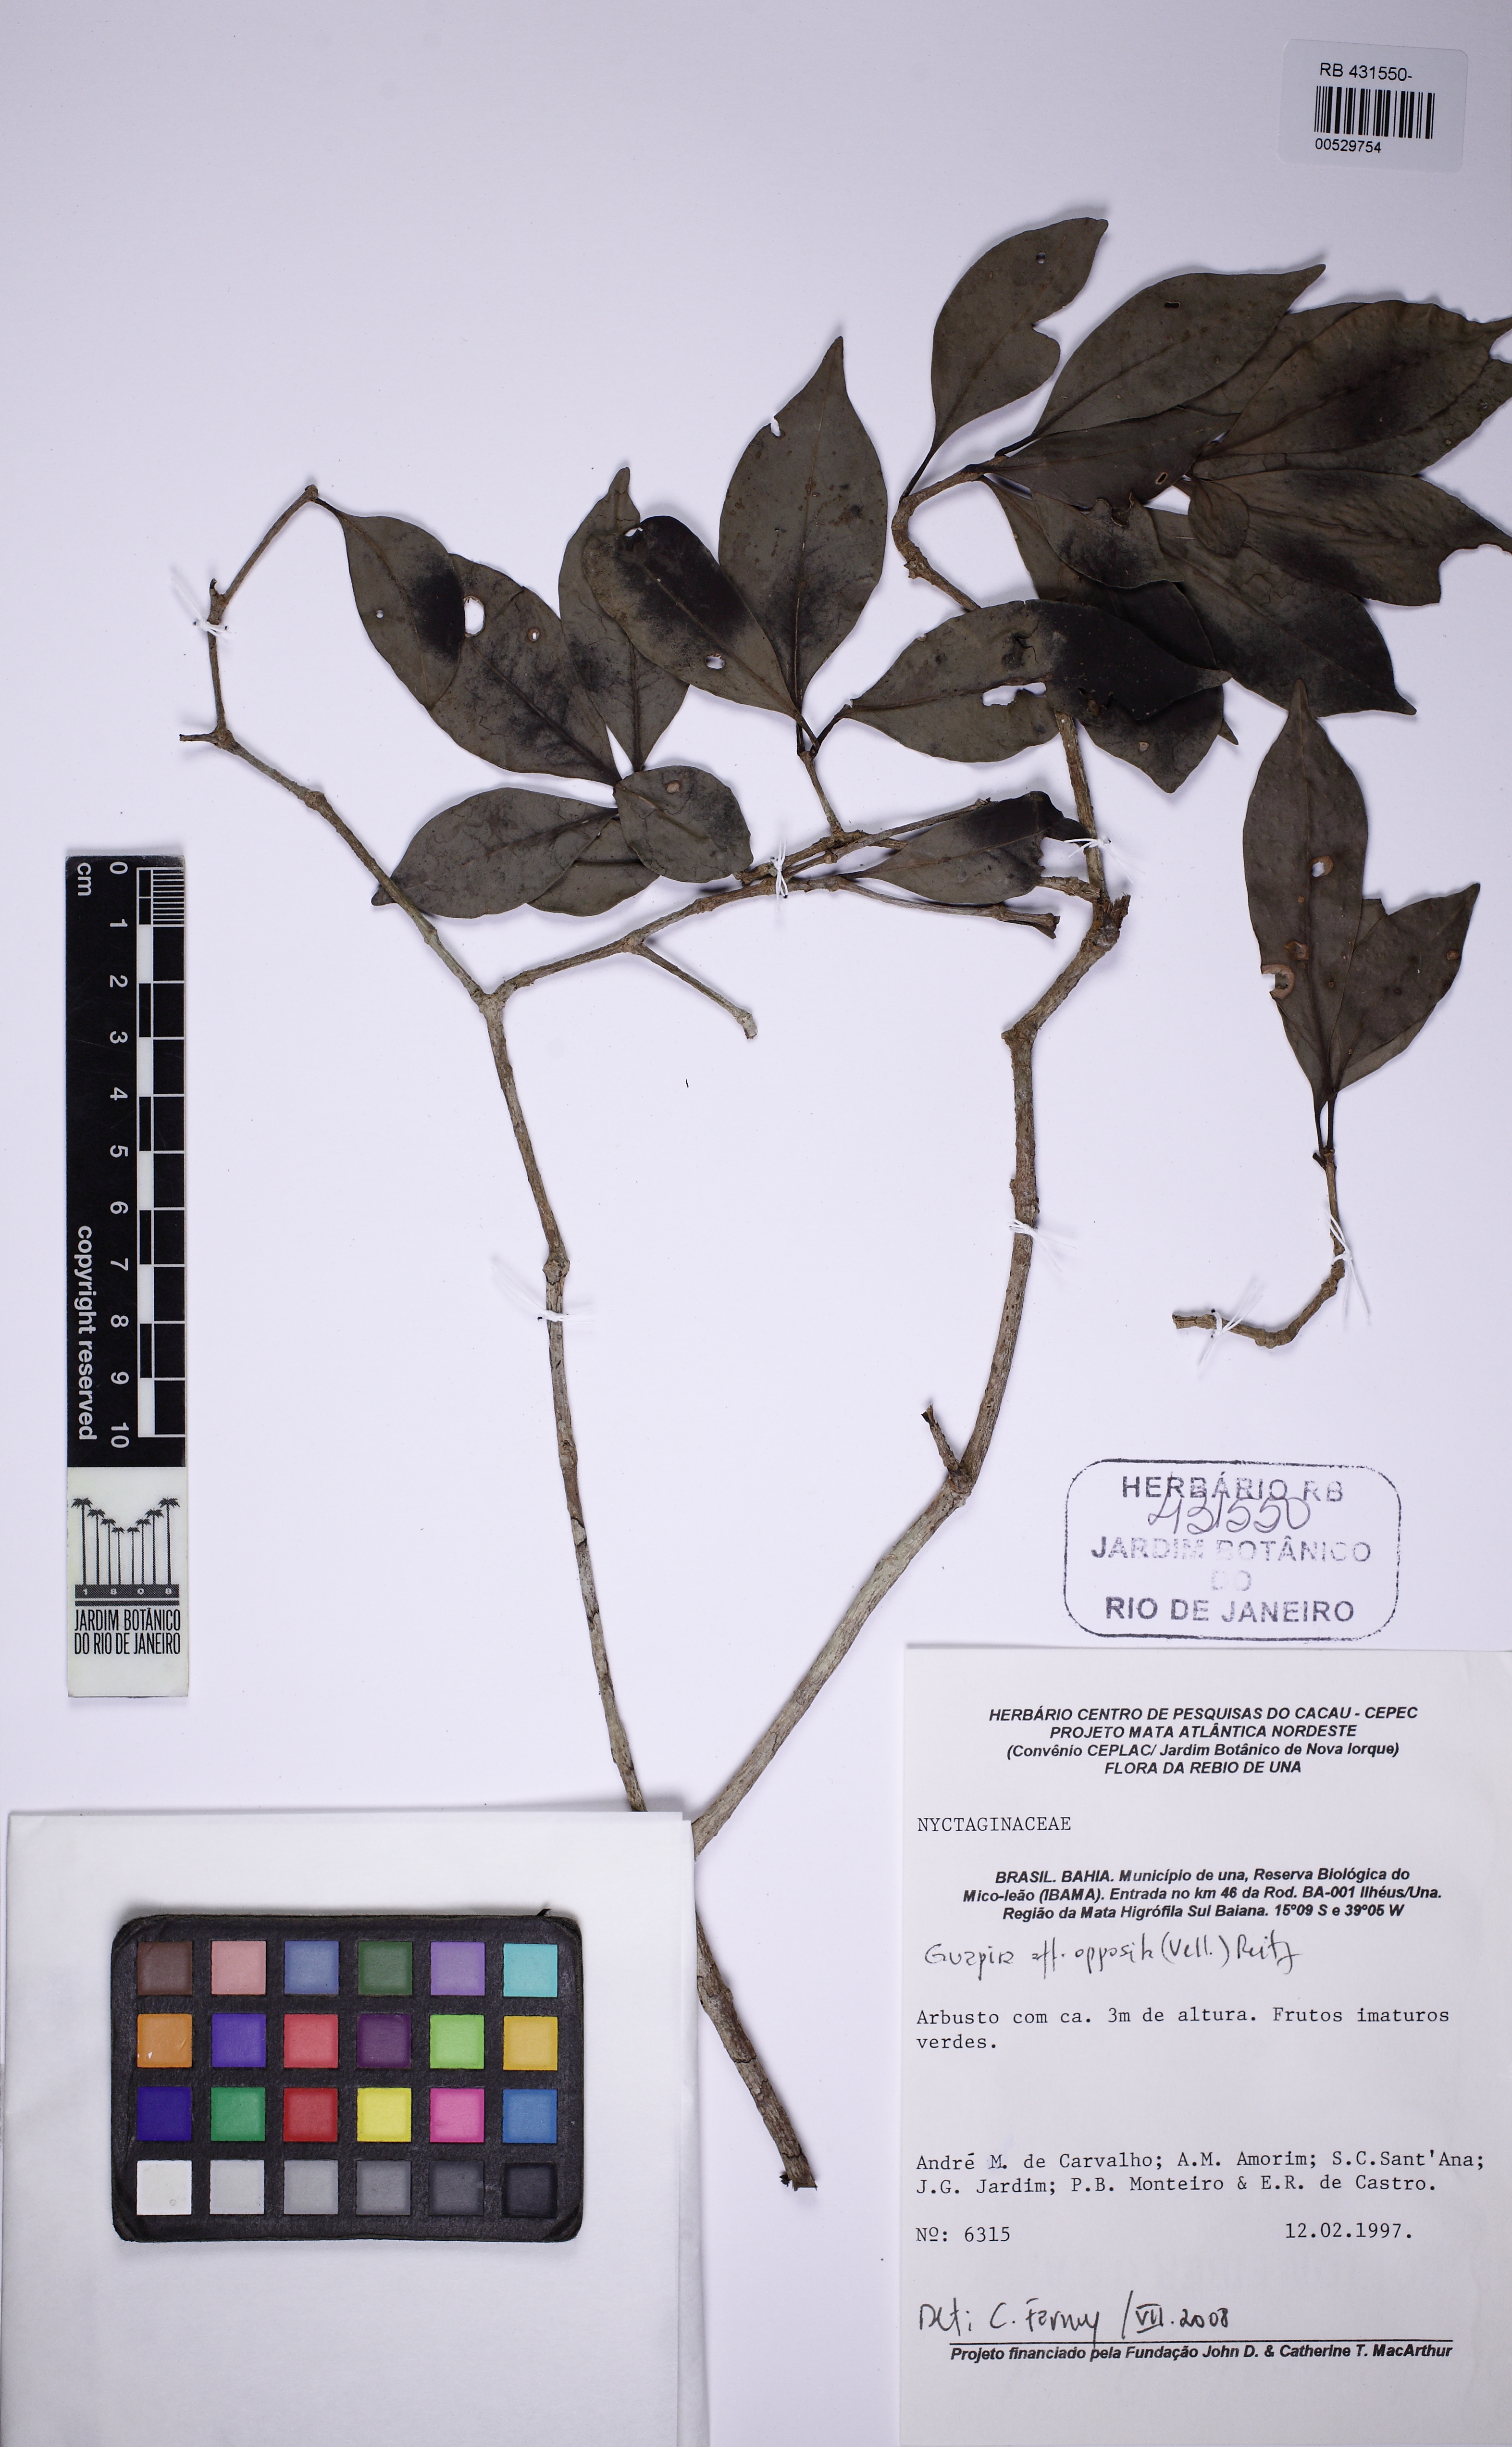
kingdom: Plantae
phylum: Tracheophyta
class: Magnoliopsida
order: Caryophyllales
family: Nyctaginaceae
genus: Guapira
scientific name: Guapira opposita
